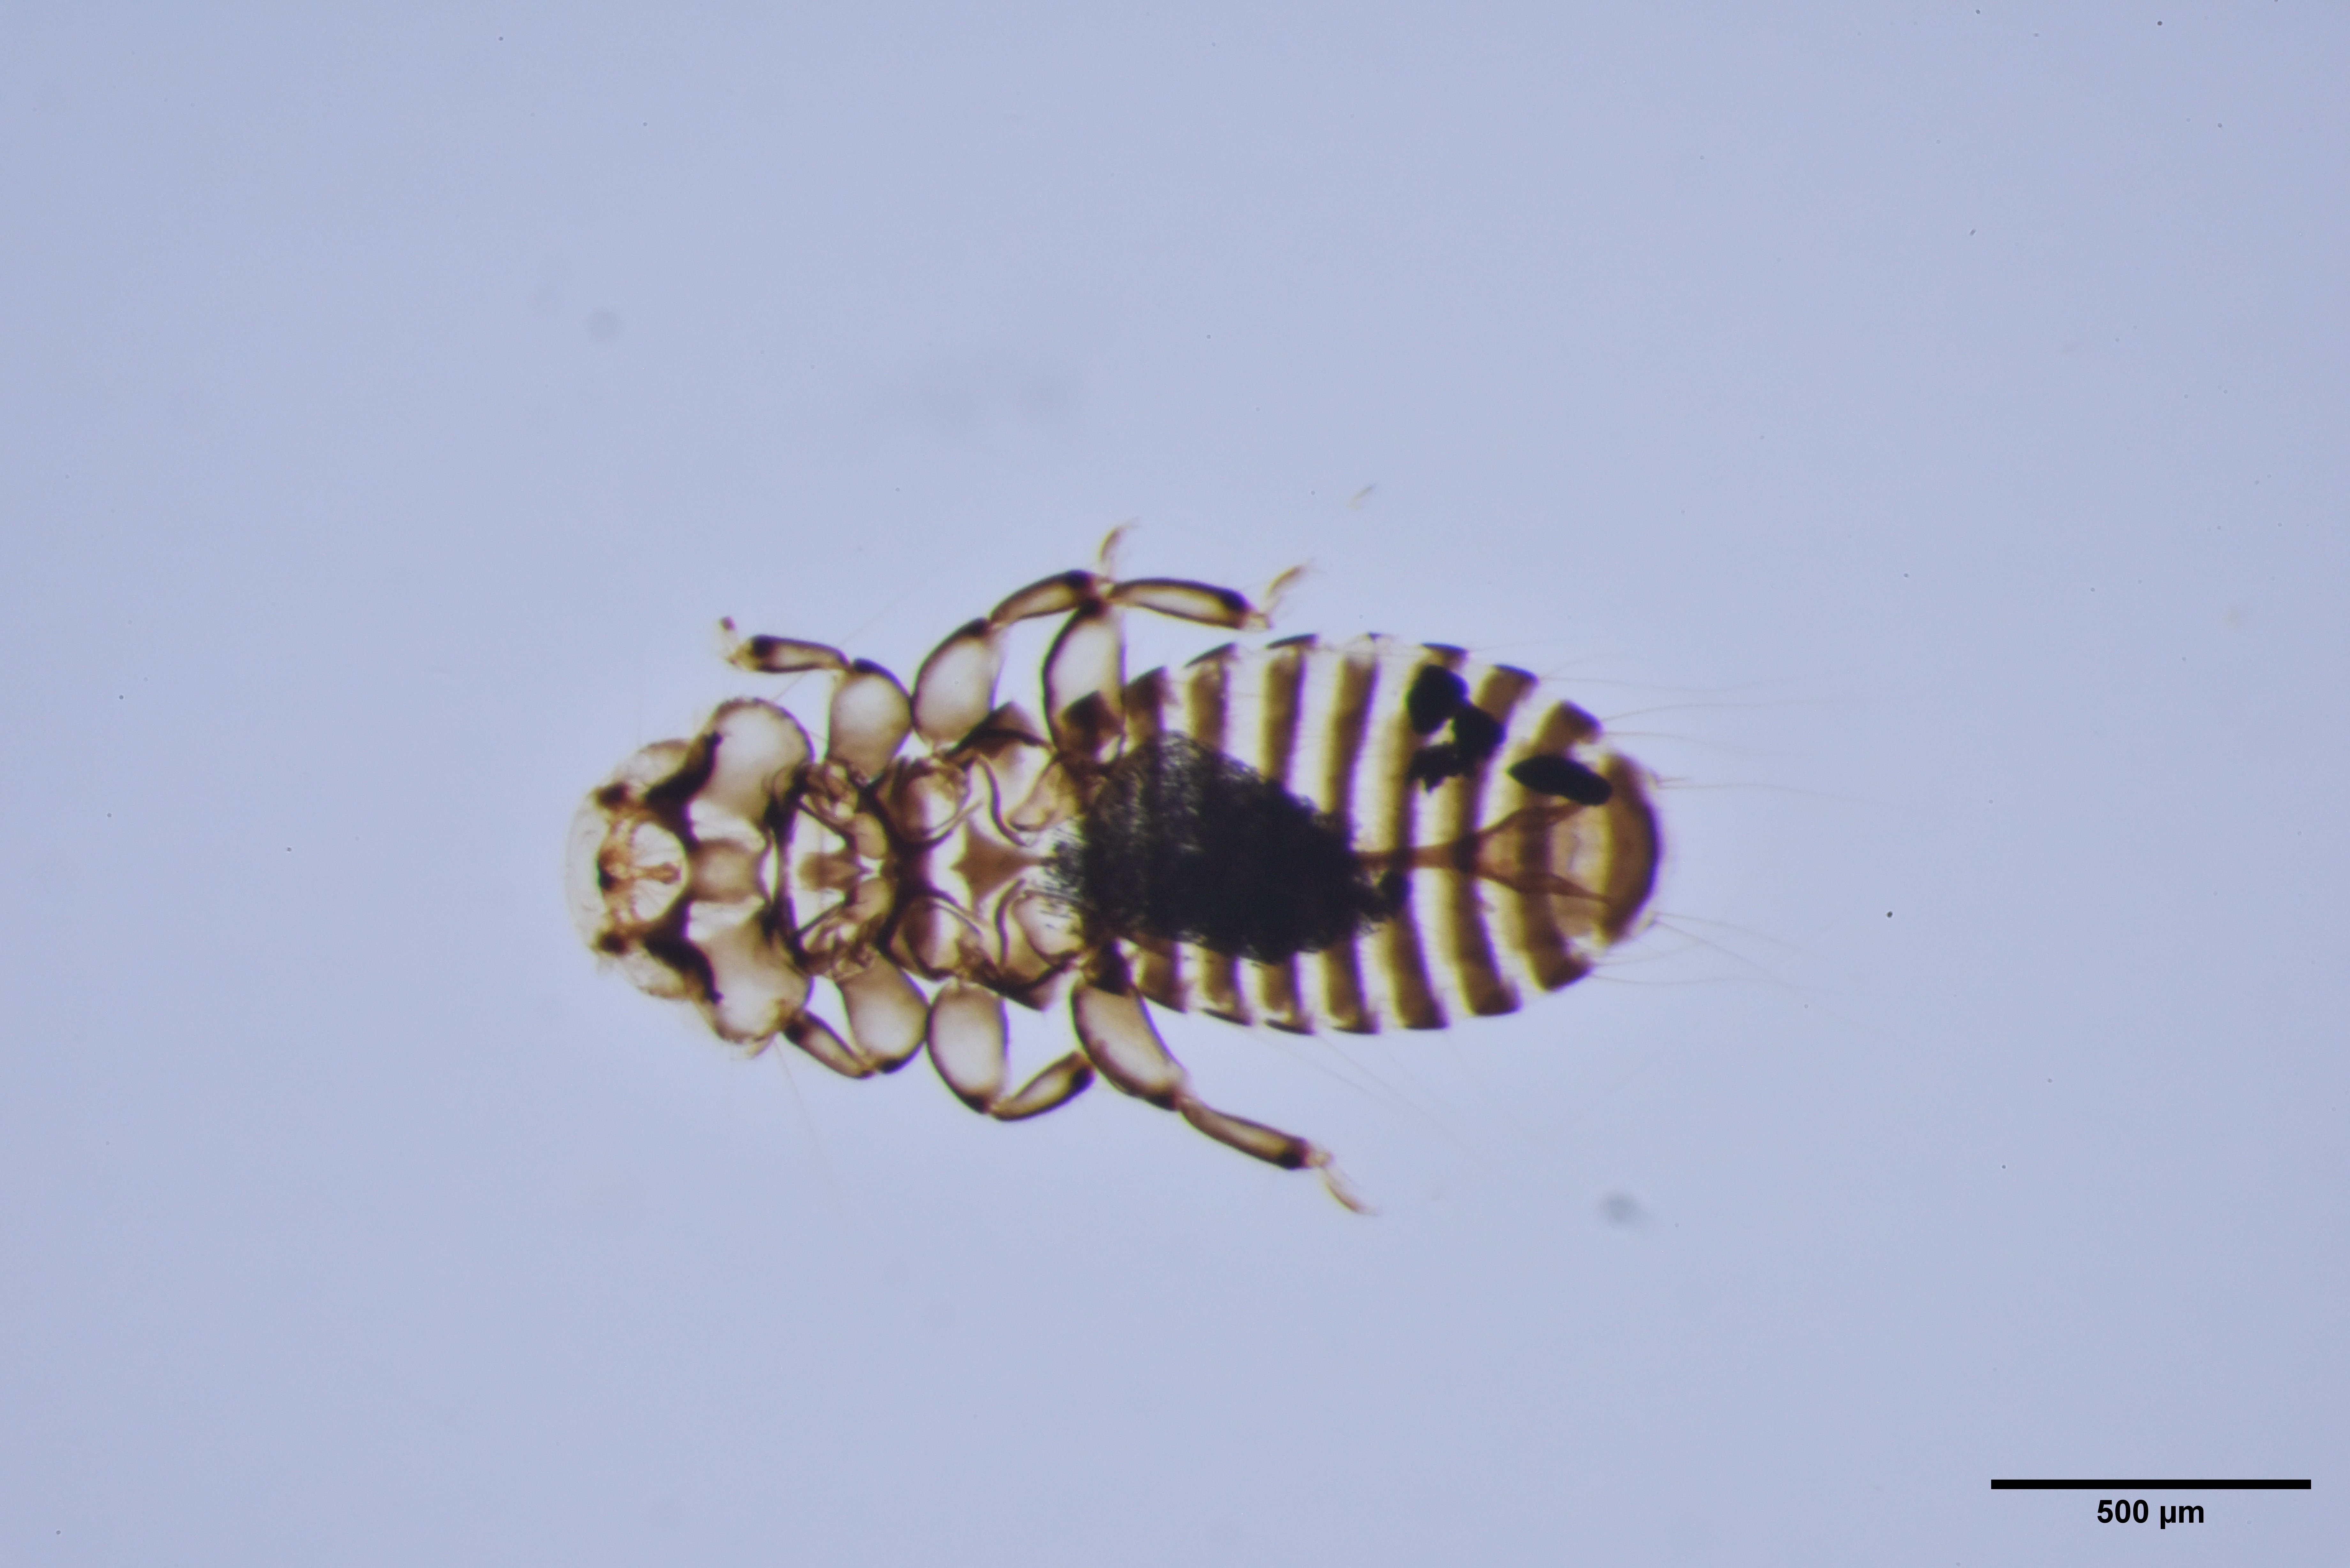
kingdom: Animalia
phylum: Arthropoda
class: Insecta
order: Psocodea
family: Menoponidae
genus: Myrsidea
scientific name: Myrsidea anathorax
